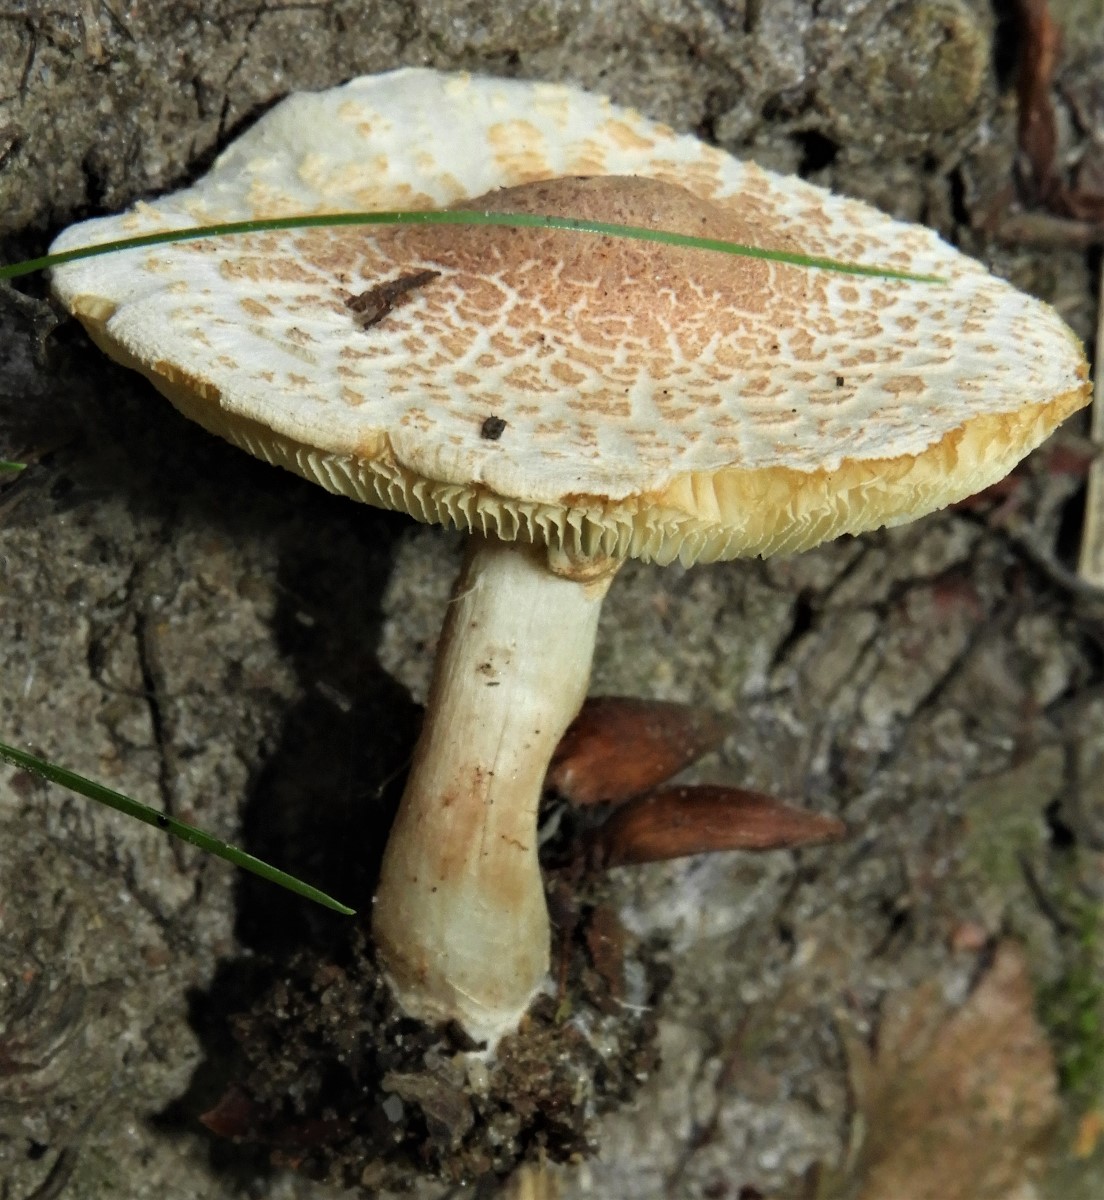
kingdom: Fungi
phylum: Basidiomycota
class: Agaricomycetes
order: Agaricales
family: Agaricaceae
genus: Lepiota
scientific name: Lepiota cristata
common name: stinkende parasolhat
